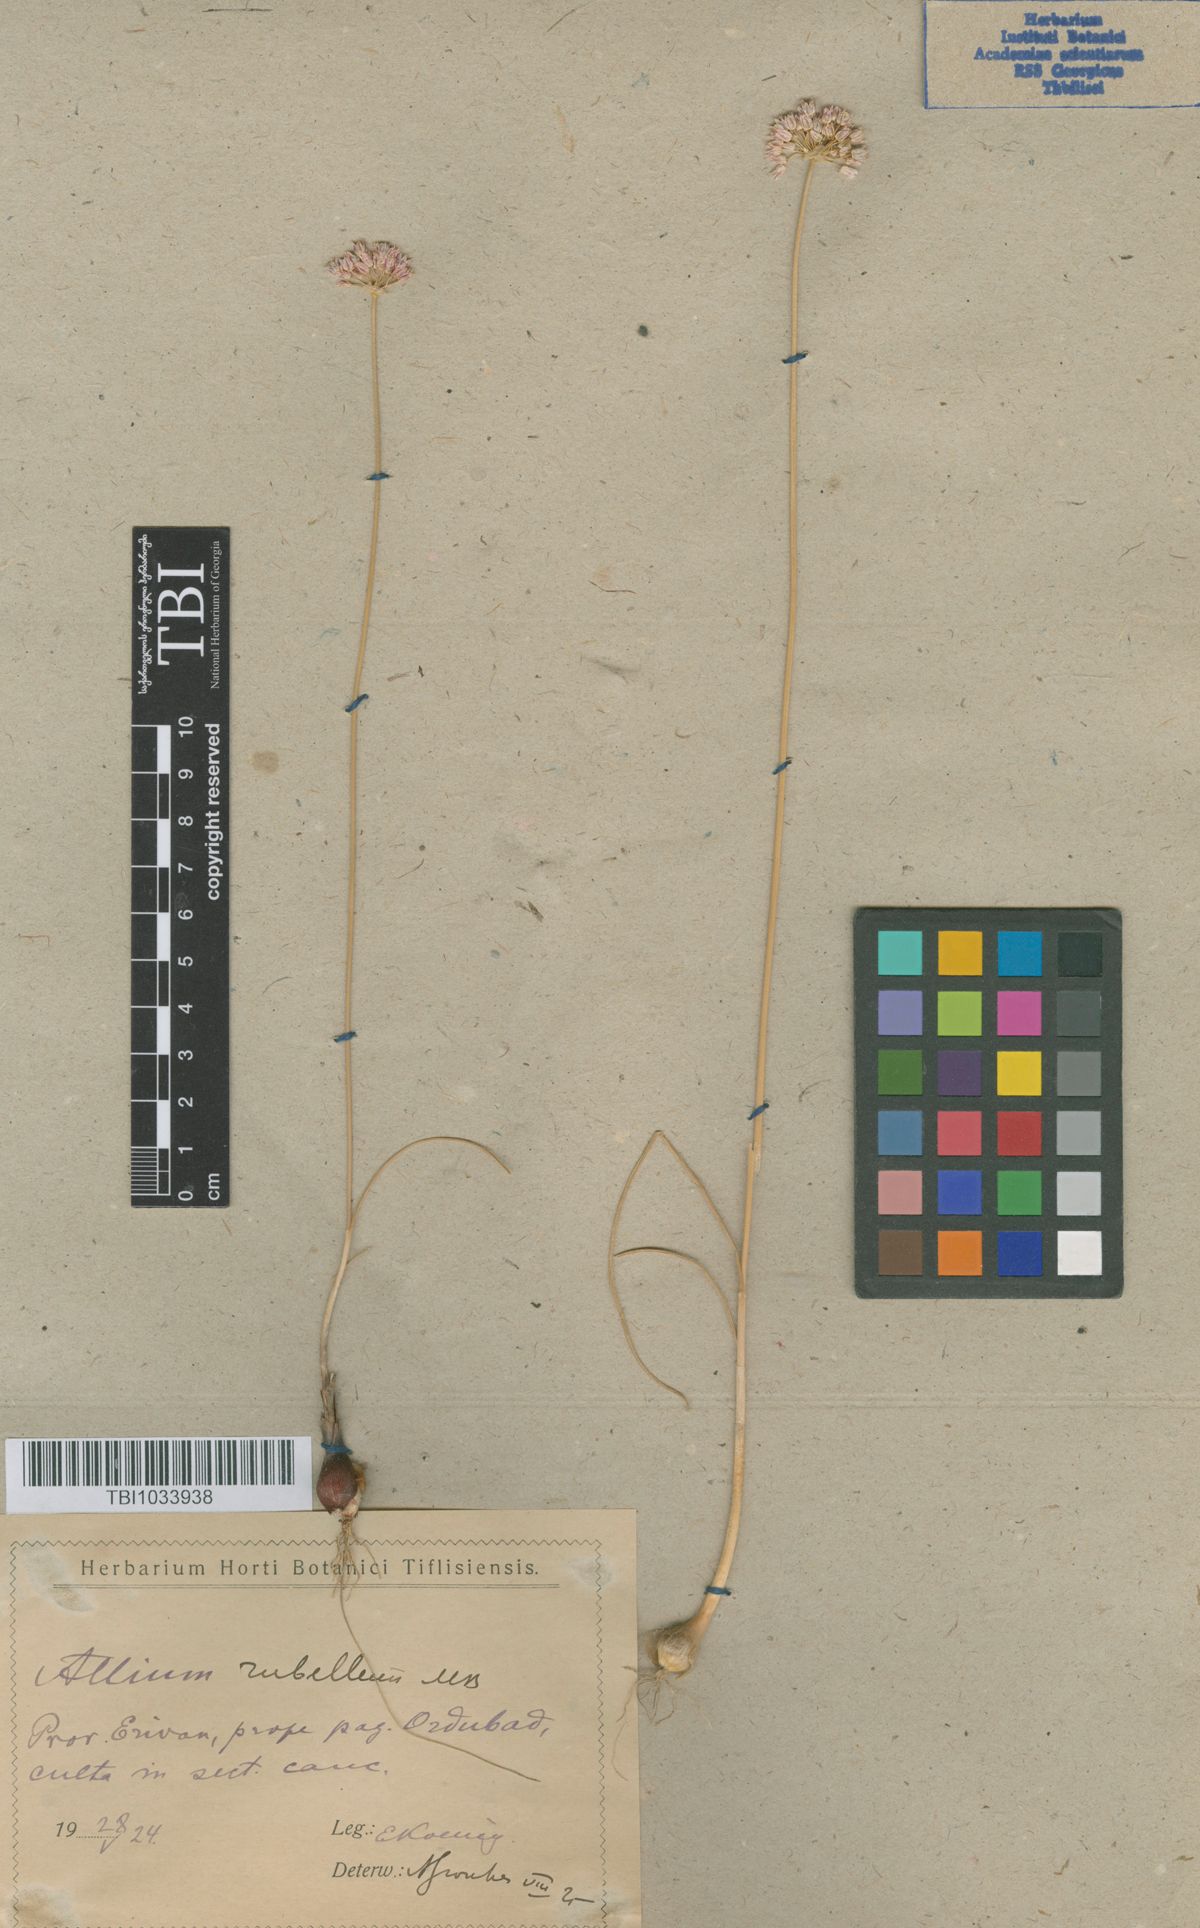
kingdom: Plantae
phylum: Tracheophyta
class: Liliopsida
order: Asparagales
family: Amaryllidaceae
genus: Allium
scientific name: Allium rubellum
